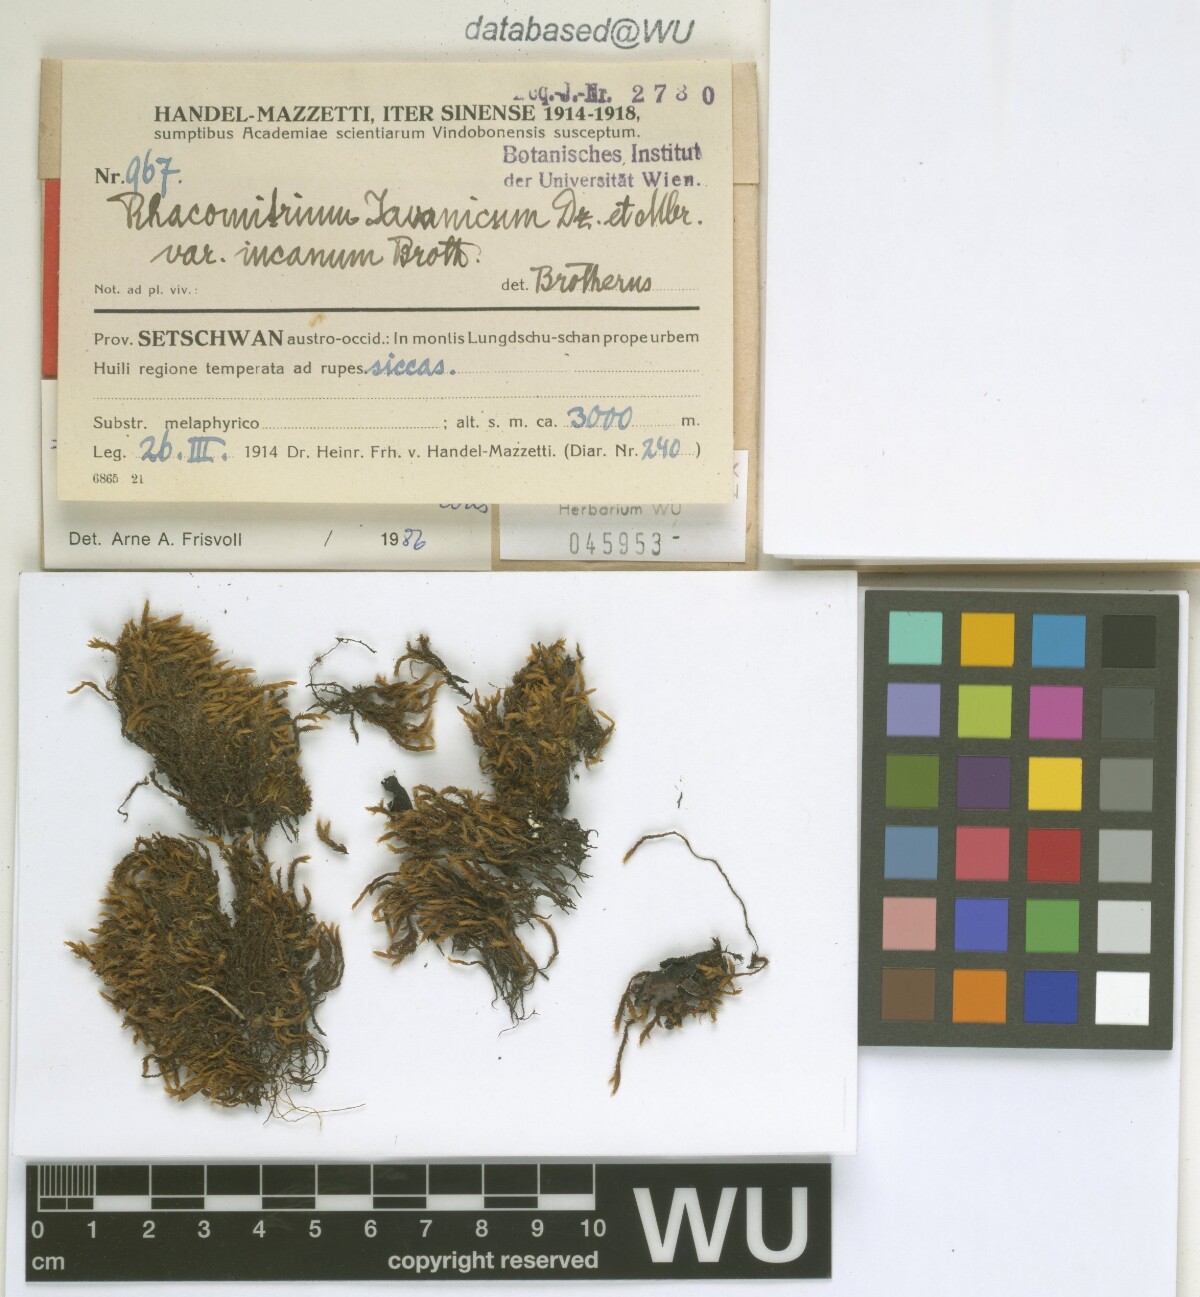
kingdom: Plantae
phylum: Bryophyta
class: Bryopsida
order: Grimmiales
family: Grimmiaceae
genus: Bucklandiella
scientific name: Bucklandiella subsecunda
